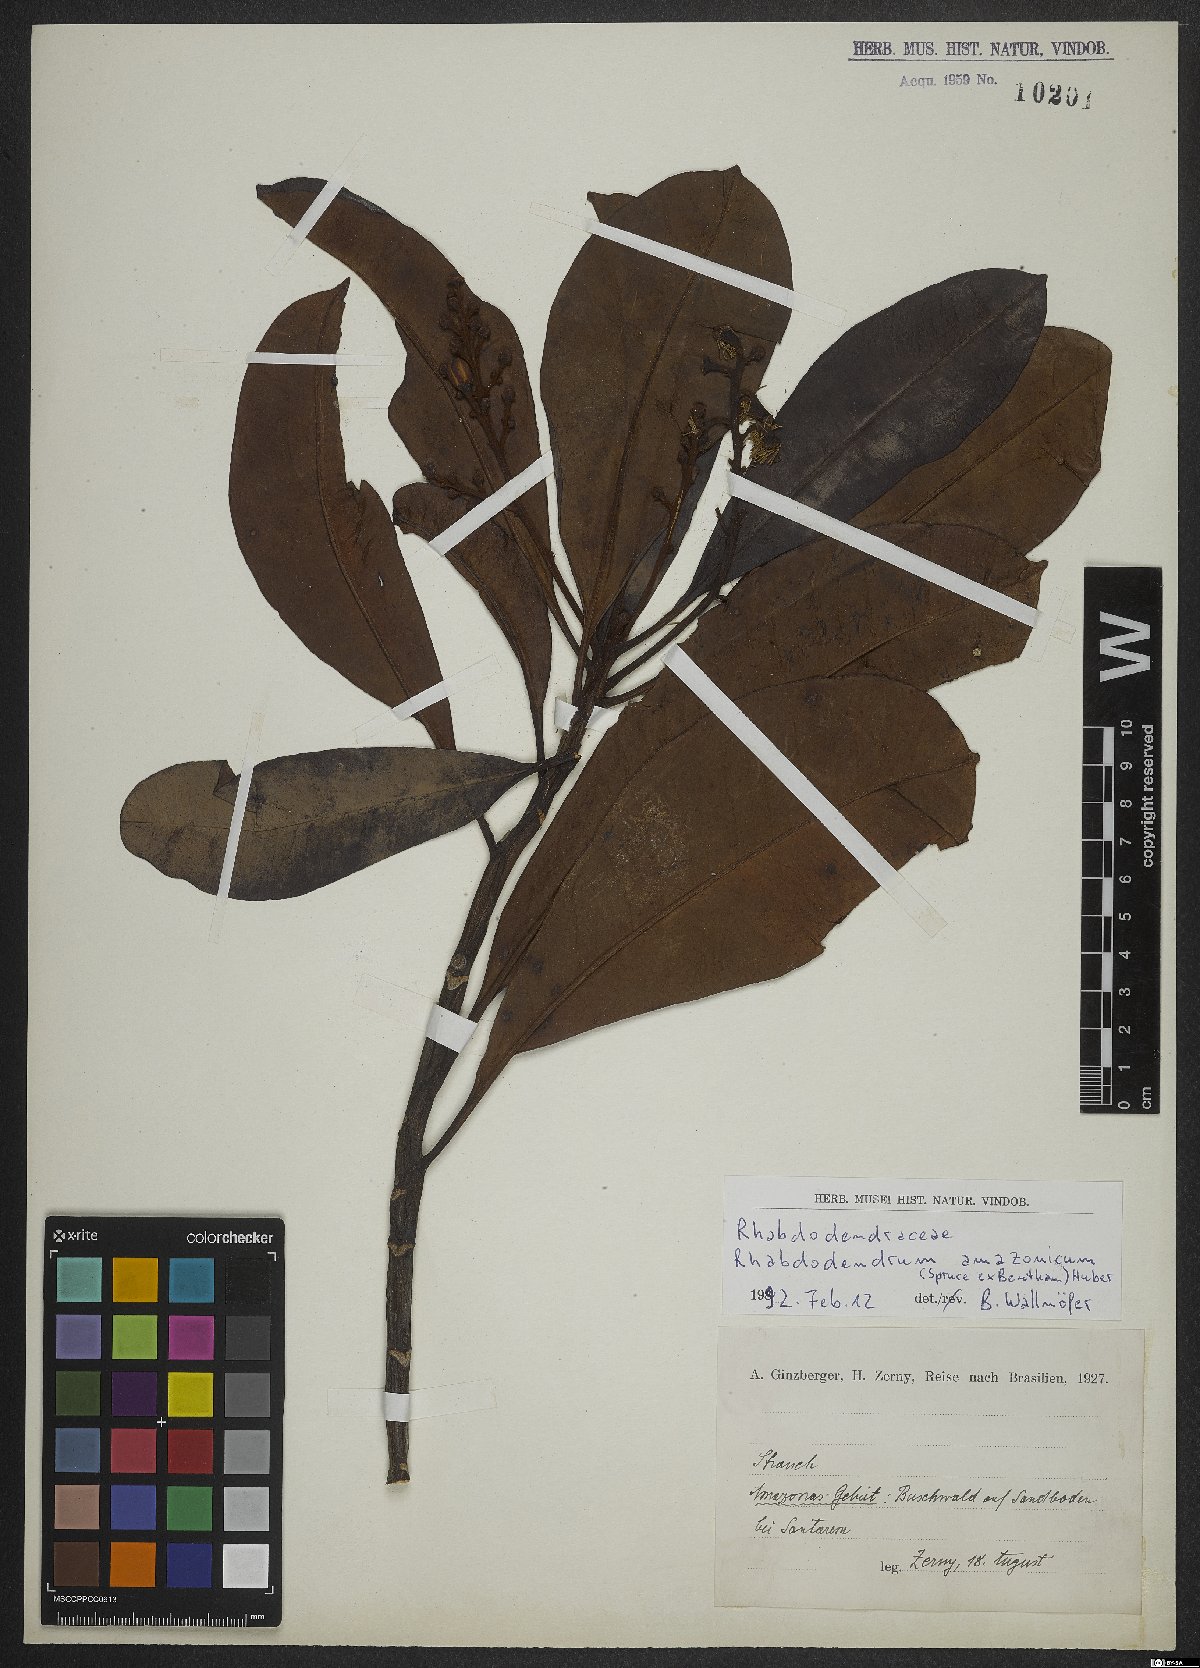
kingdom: Plantae
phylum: Tracheophyta
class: Magnoliopsida
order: Caryophyllales
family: Rhabdodendraceae
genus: Rhabdodendron
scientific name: Rhabdodendron amazonicum
